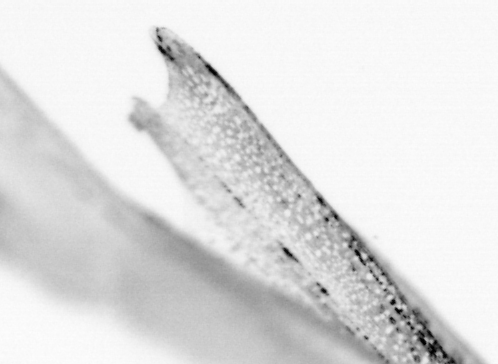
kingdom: Animalia
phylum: Chordata
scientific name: Chordata
